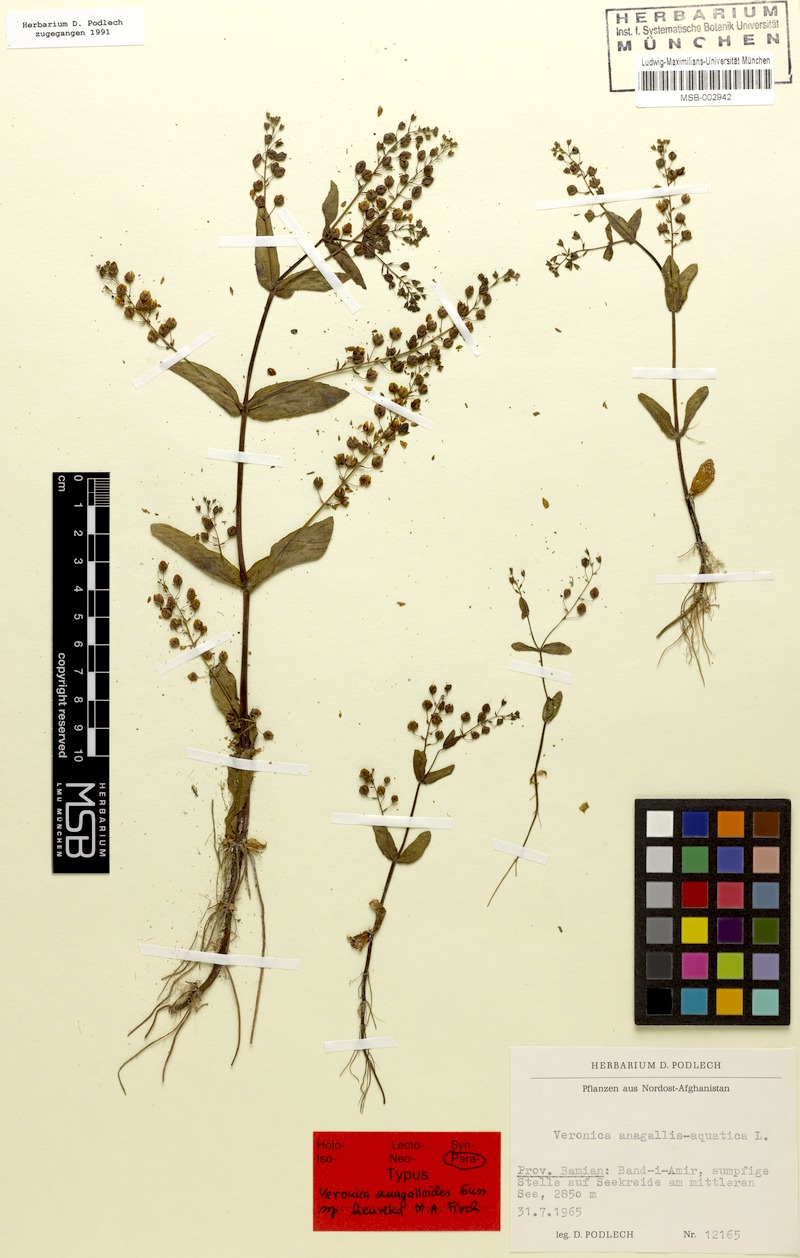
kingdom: Plantae
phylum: Tracheophyta
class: Magnoliopsida
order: Lamiales
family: Plantaginaceae
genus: Veronica
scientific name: Veronica heureka
